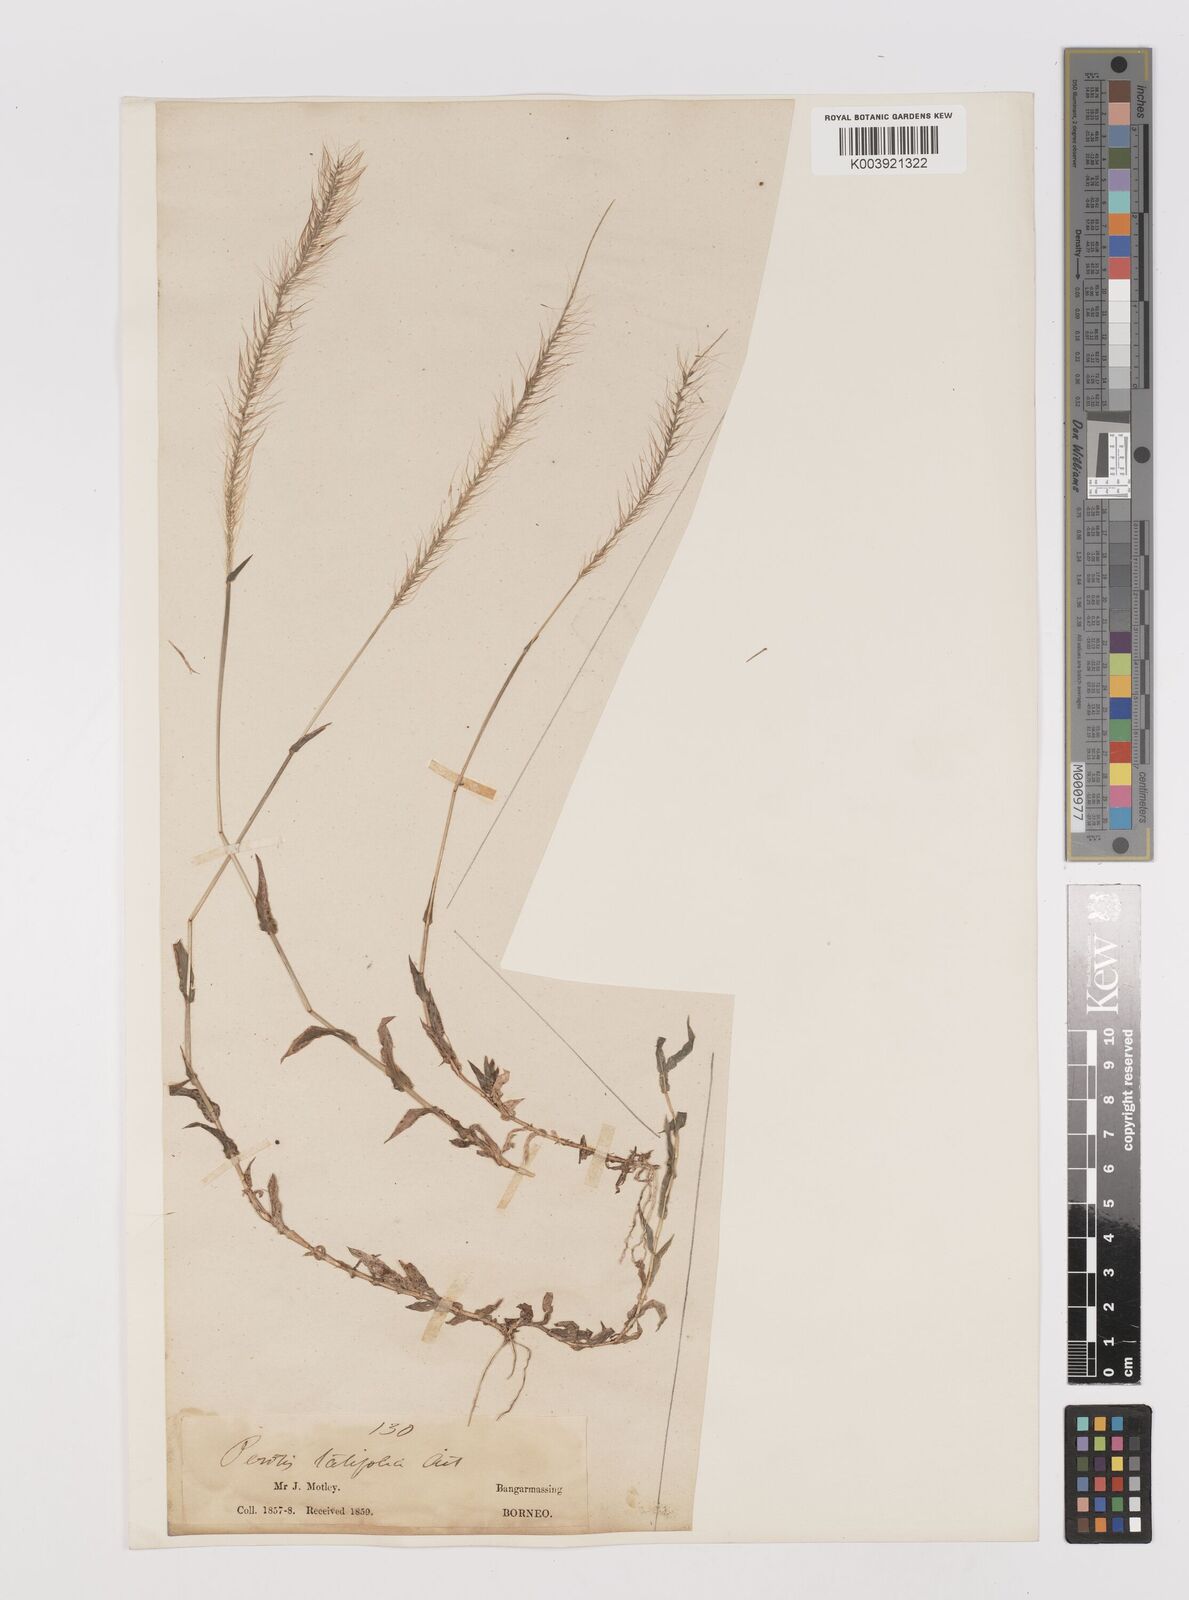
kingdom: Plantae
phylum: Tracheophyta
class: Liliopsida
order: Poales
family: Poaceae
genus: Perotis
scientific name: Perotis indica
